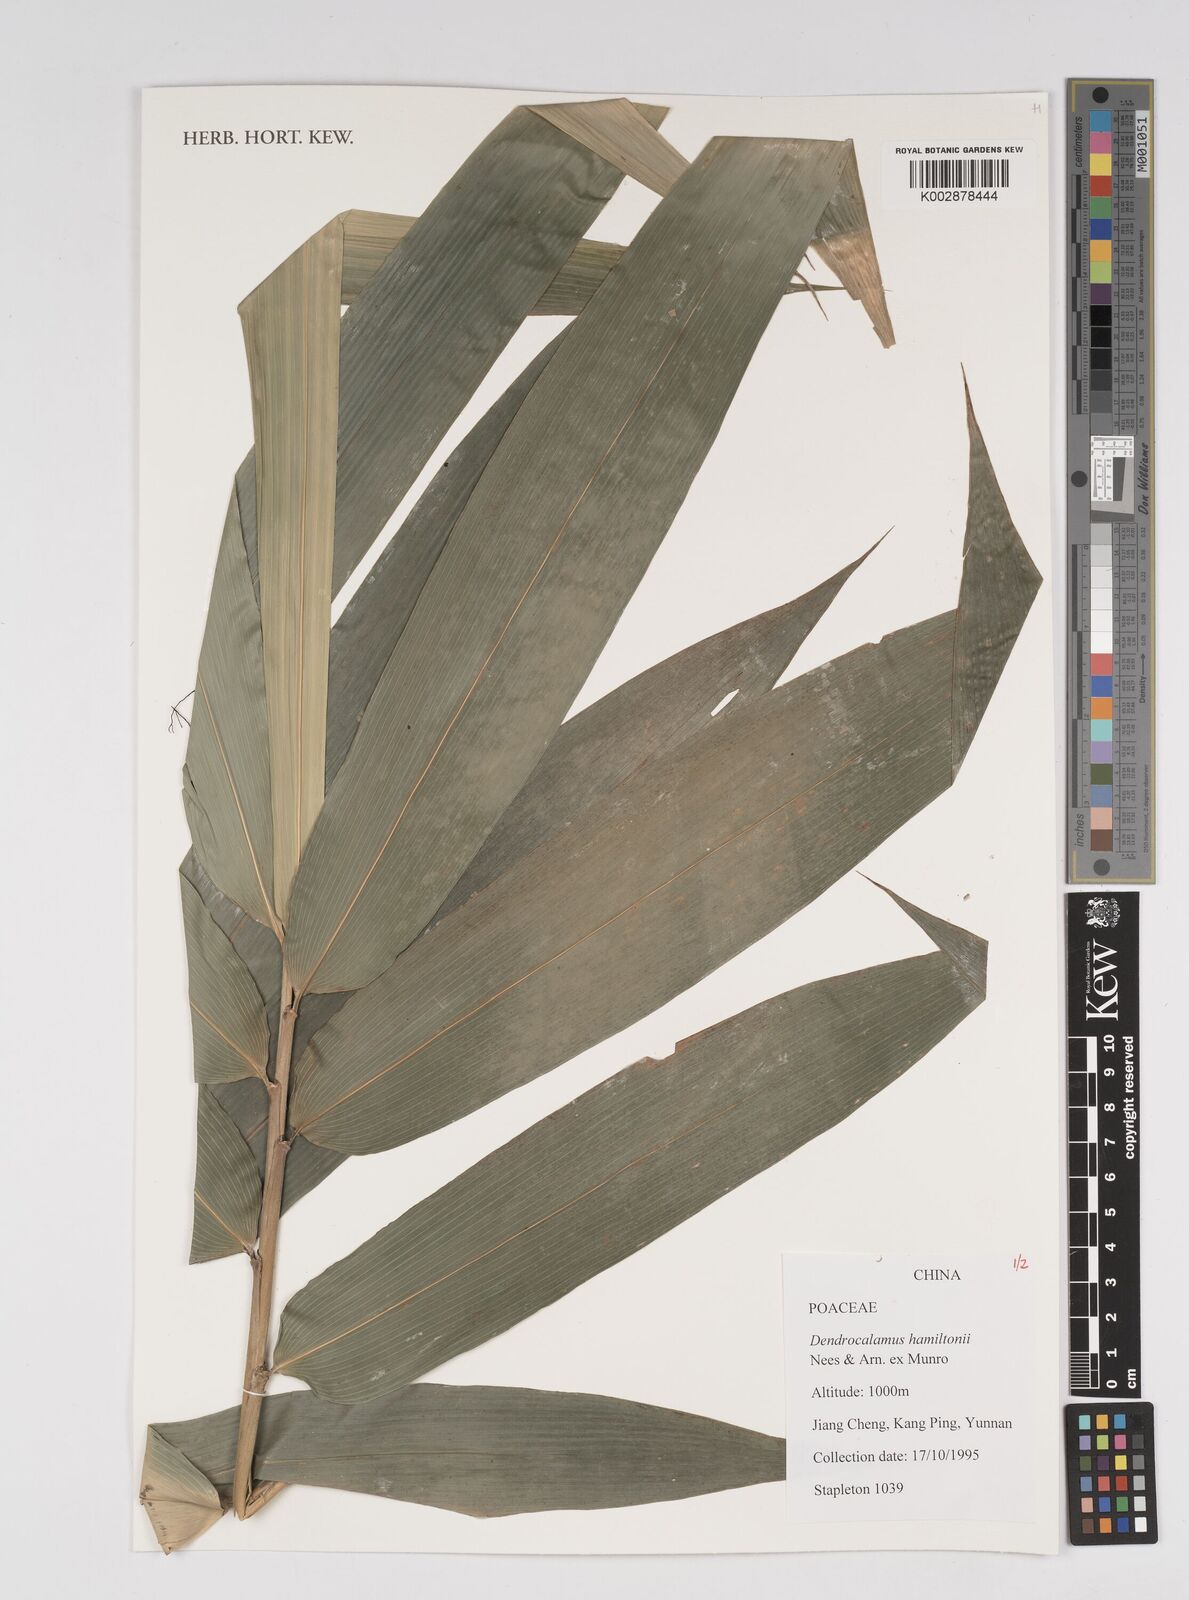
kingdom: Plantae
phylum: Tracheophyta
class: Liliopsida
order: Poales
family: Poaceae
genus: Dendrocalamus
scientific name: Dendrocalamus hamiltonii
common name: Tama bamboo
